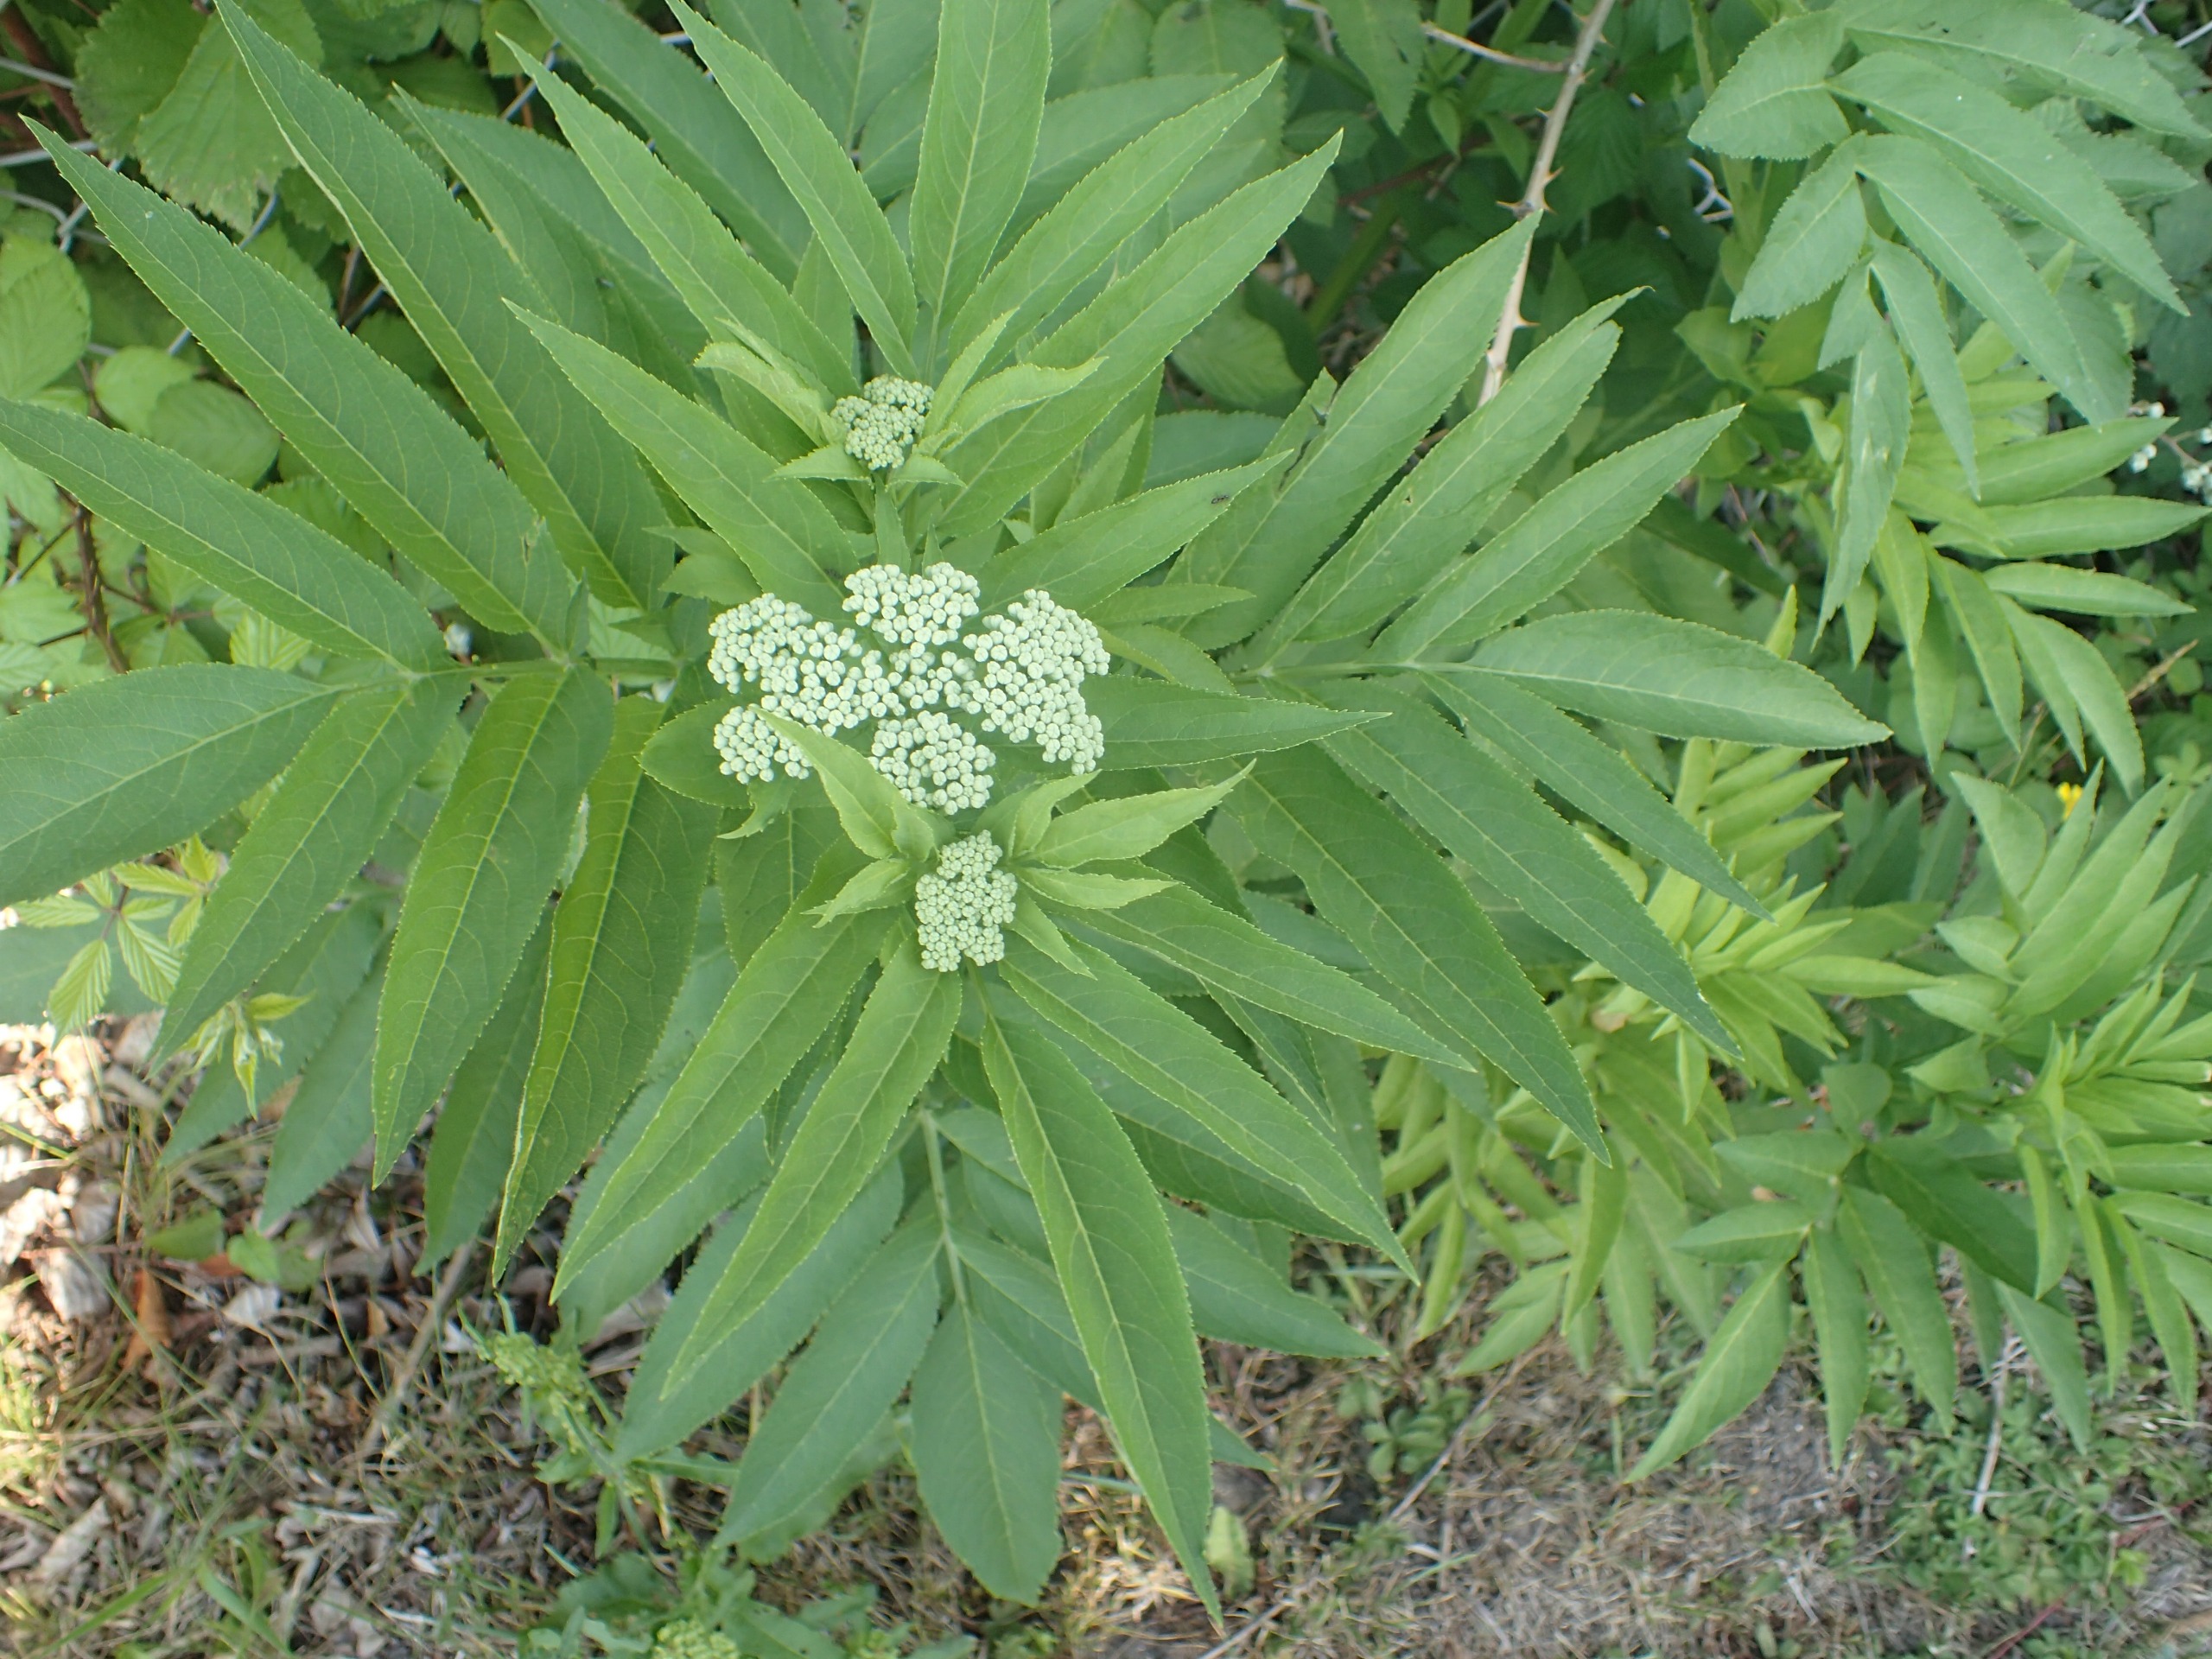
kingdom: Plantae
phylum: Tracheophyta
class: Magnoliopsida
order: Dipsacales
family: Viburnaceae
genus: Sambucus
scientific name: Sambucus ebulus
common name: Sommer-hyld
